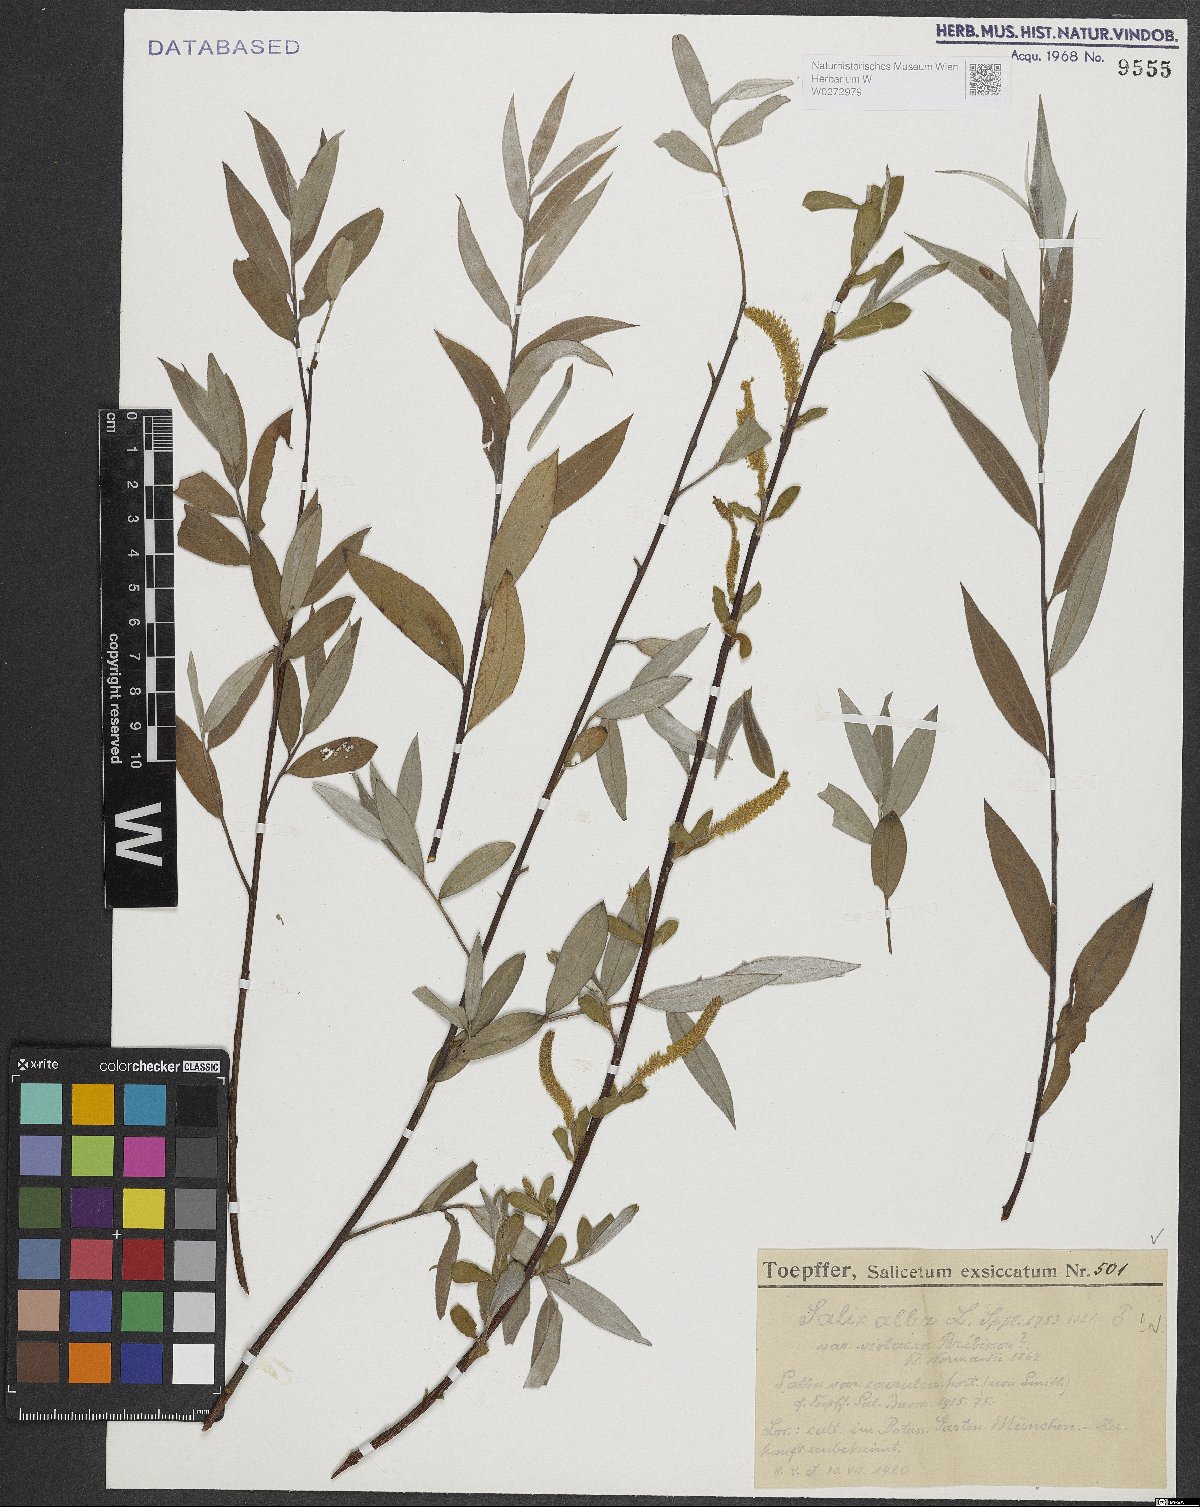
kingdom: Plantae
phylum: Tracheophyta
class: Magnoliopsida
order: Malpighiales
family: Salicaceae
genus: Salix
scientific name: Salix alba
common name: White willow
